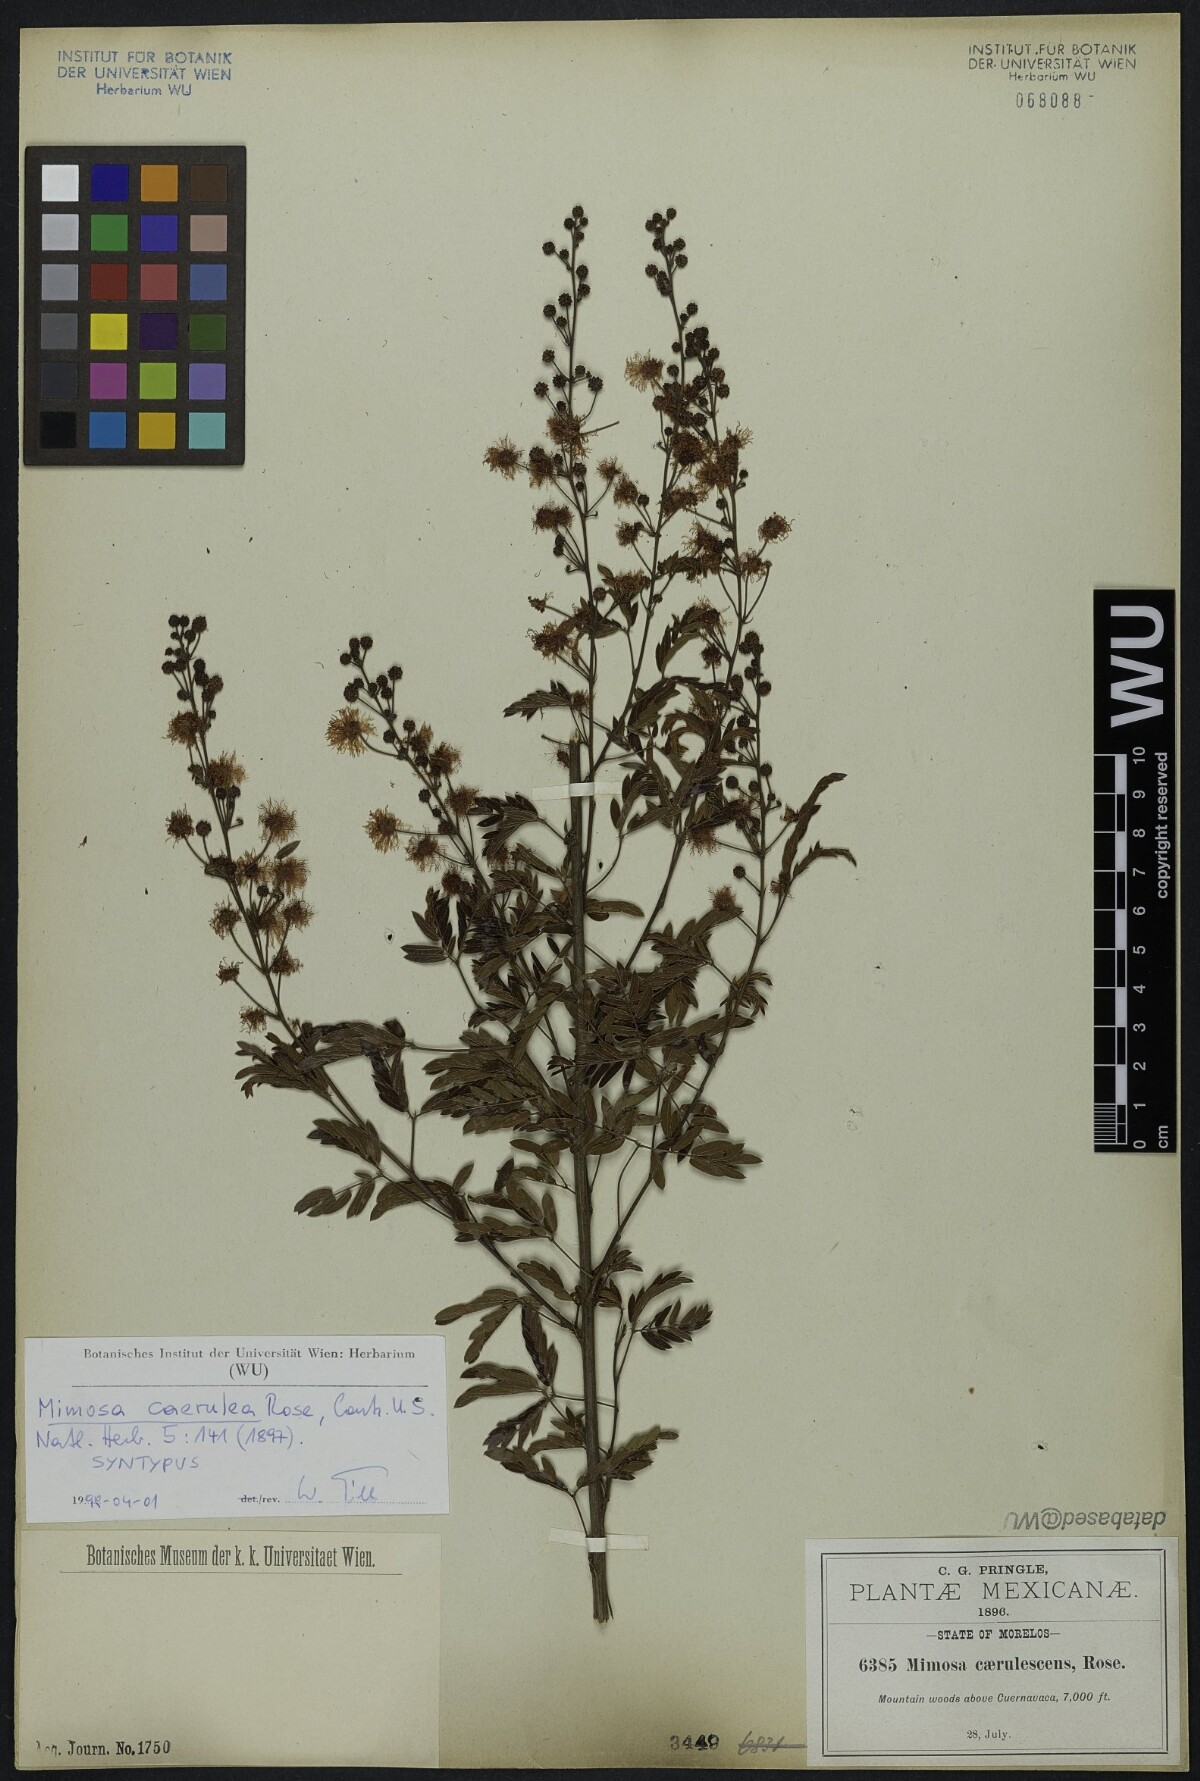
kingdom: Plantae
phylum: Tracheophyta
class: Magnoliopsida
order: Fabales
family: Fabaceae
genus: Mimosa
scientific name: Mimosa caerulea
